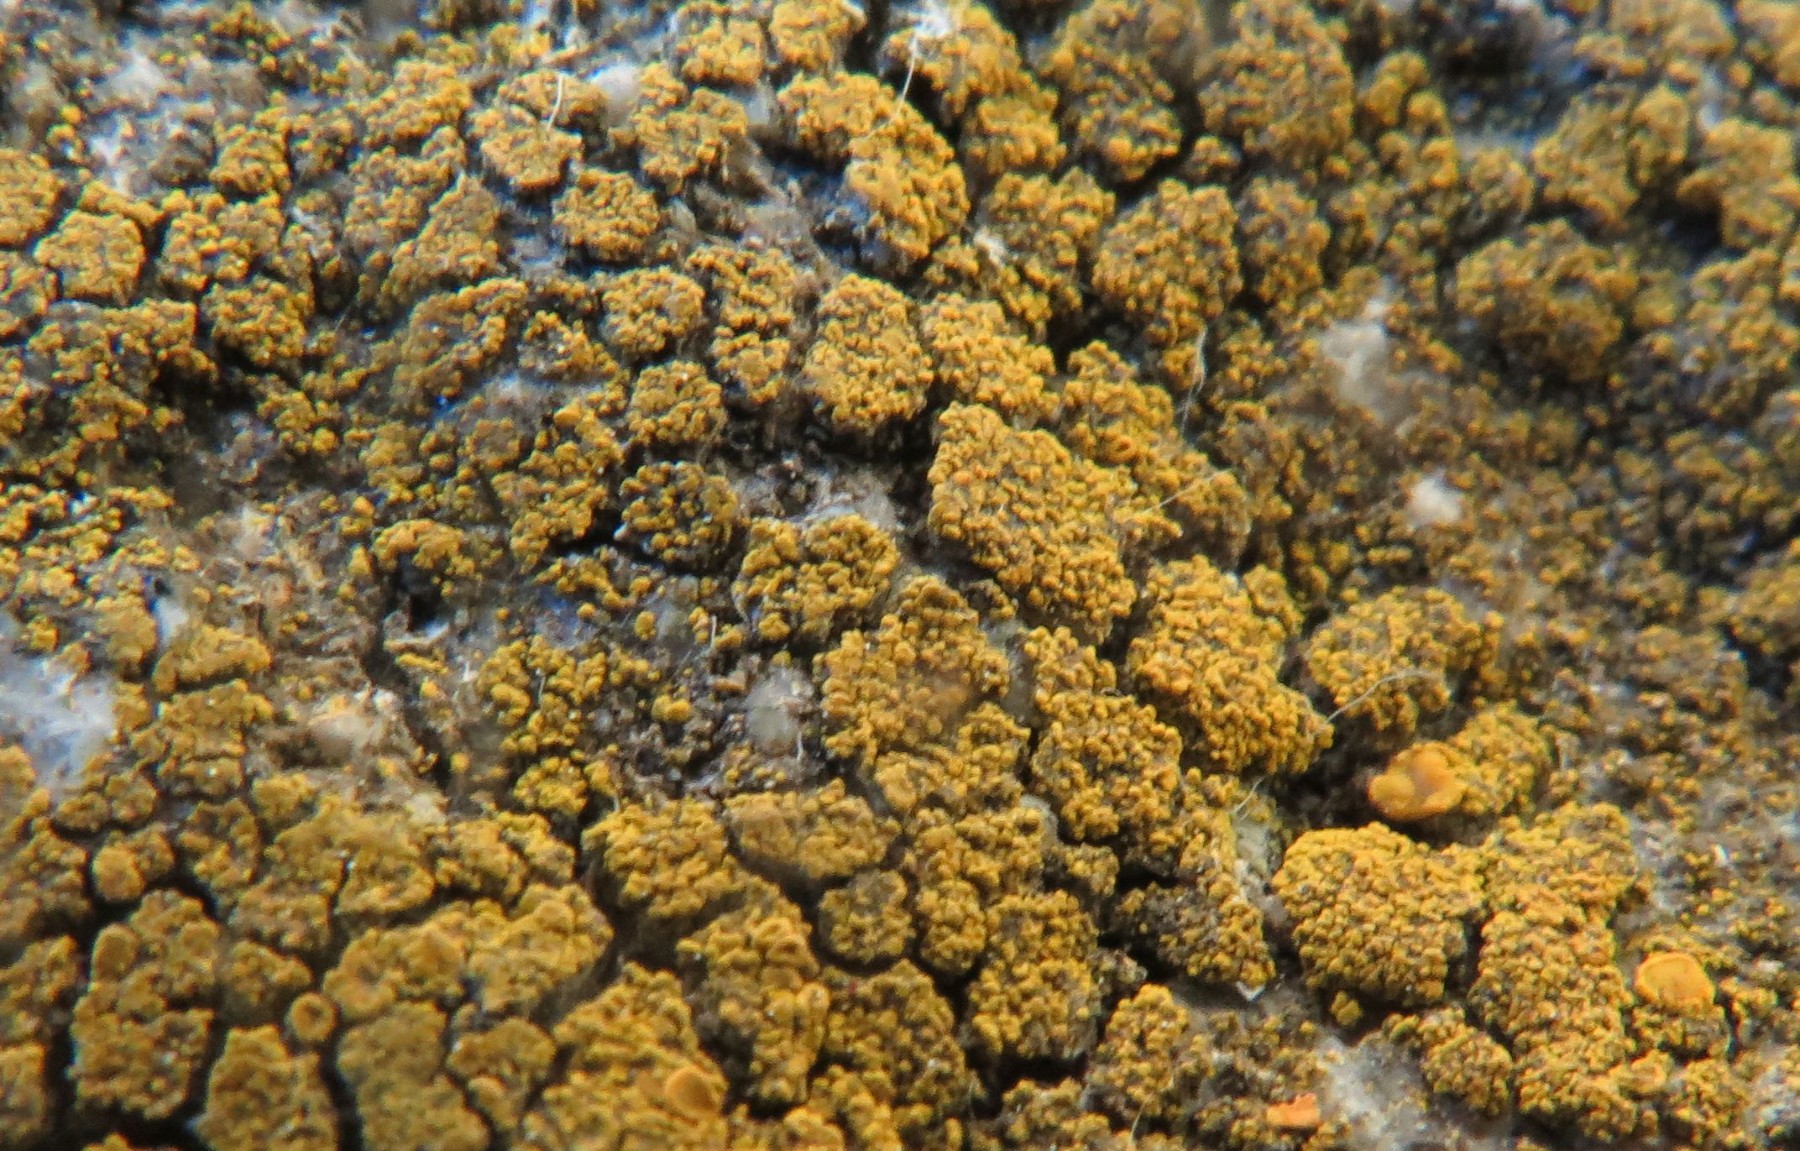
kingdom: Fungi
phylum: Ascomycota
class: Candelariomycetes
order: Candelariales
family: Candelariaceae
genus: Candelariella
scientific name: Candelariella vitellina
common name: almindelig æggeblommelav
